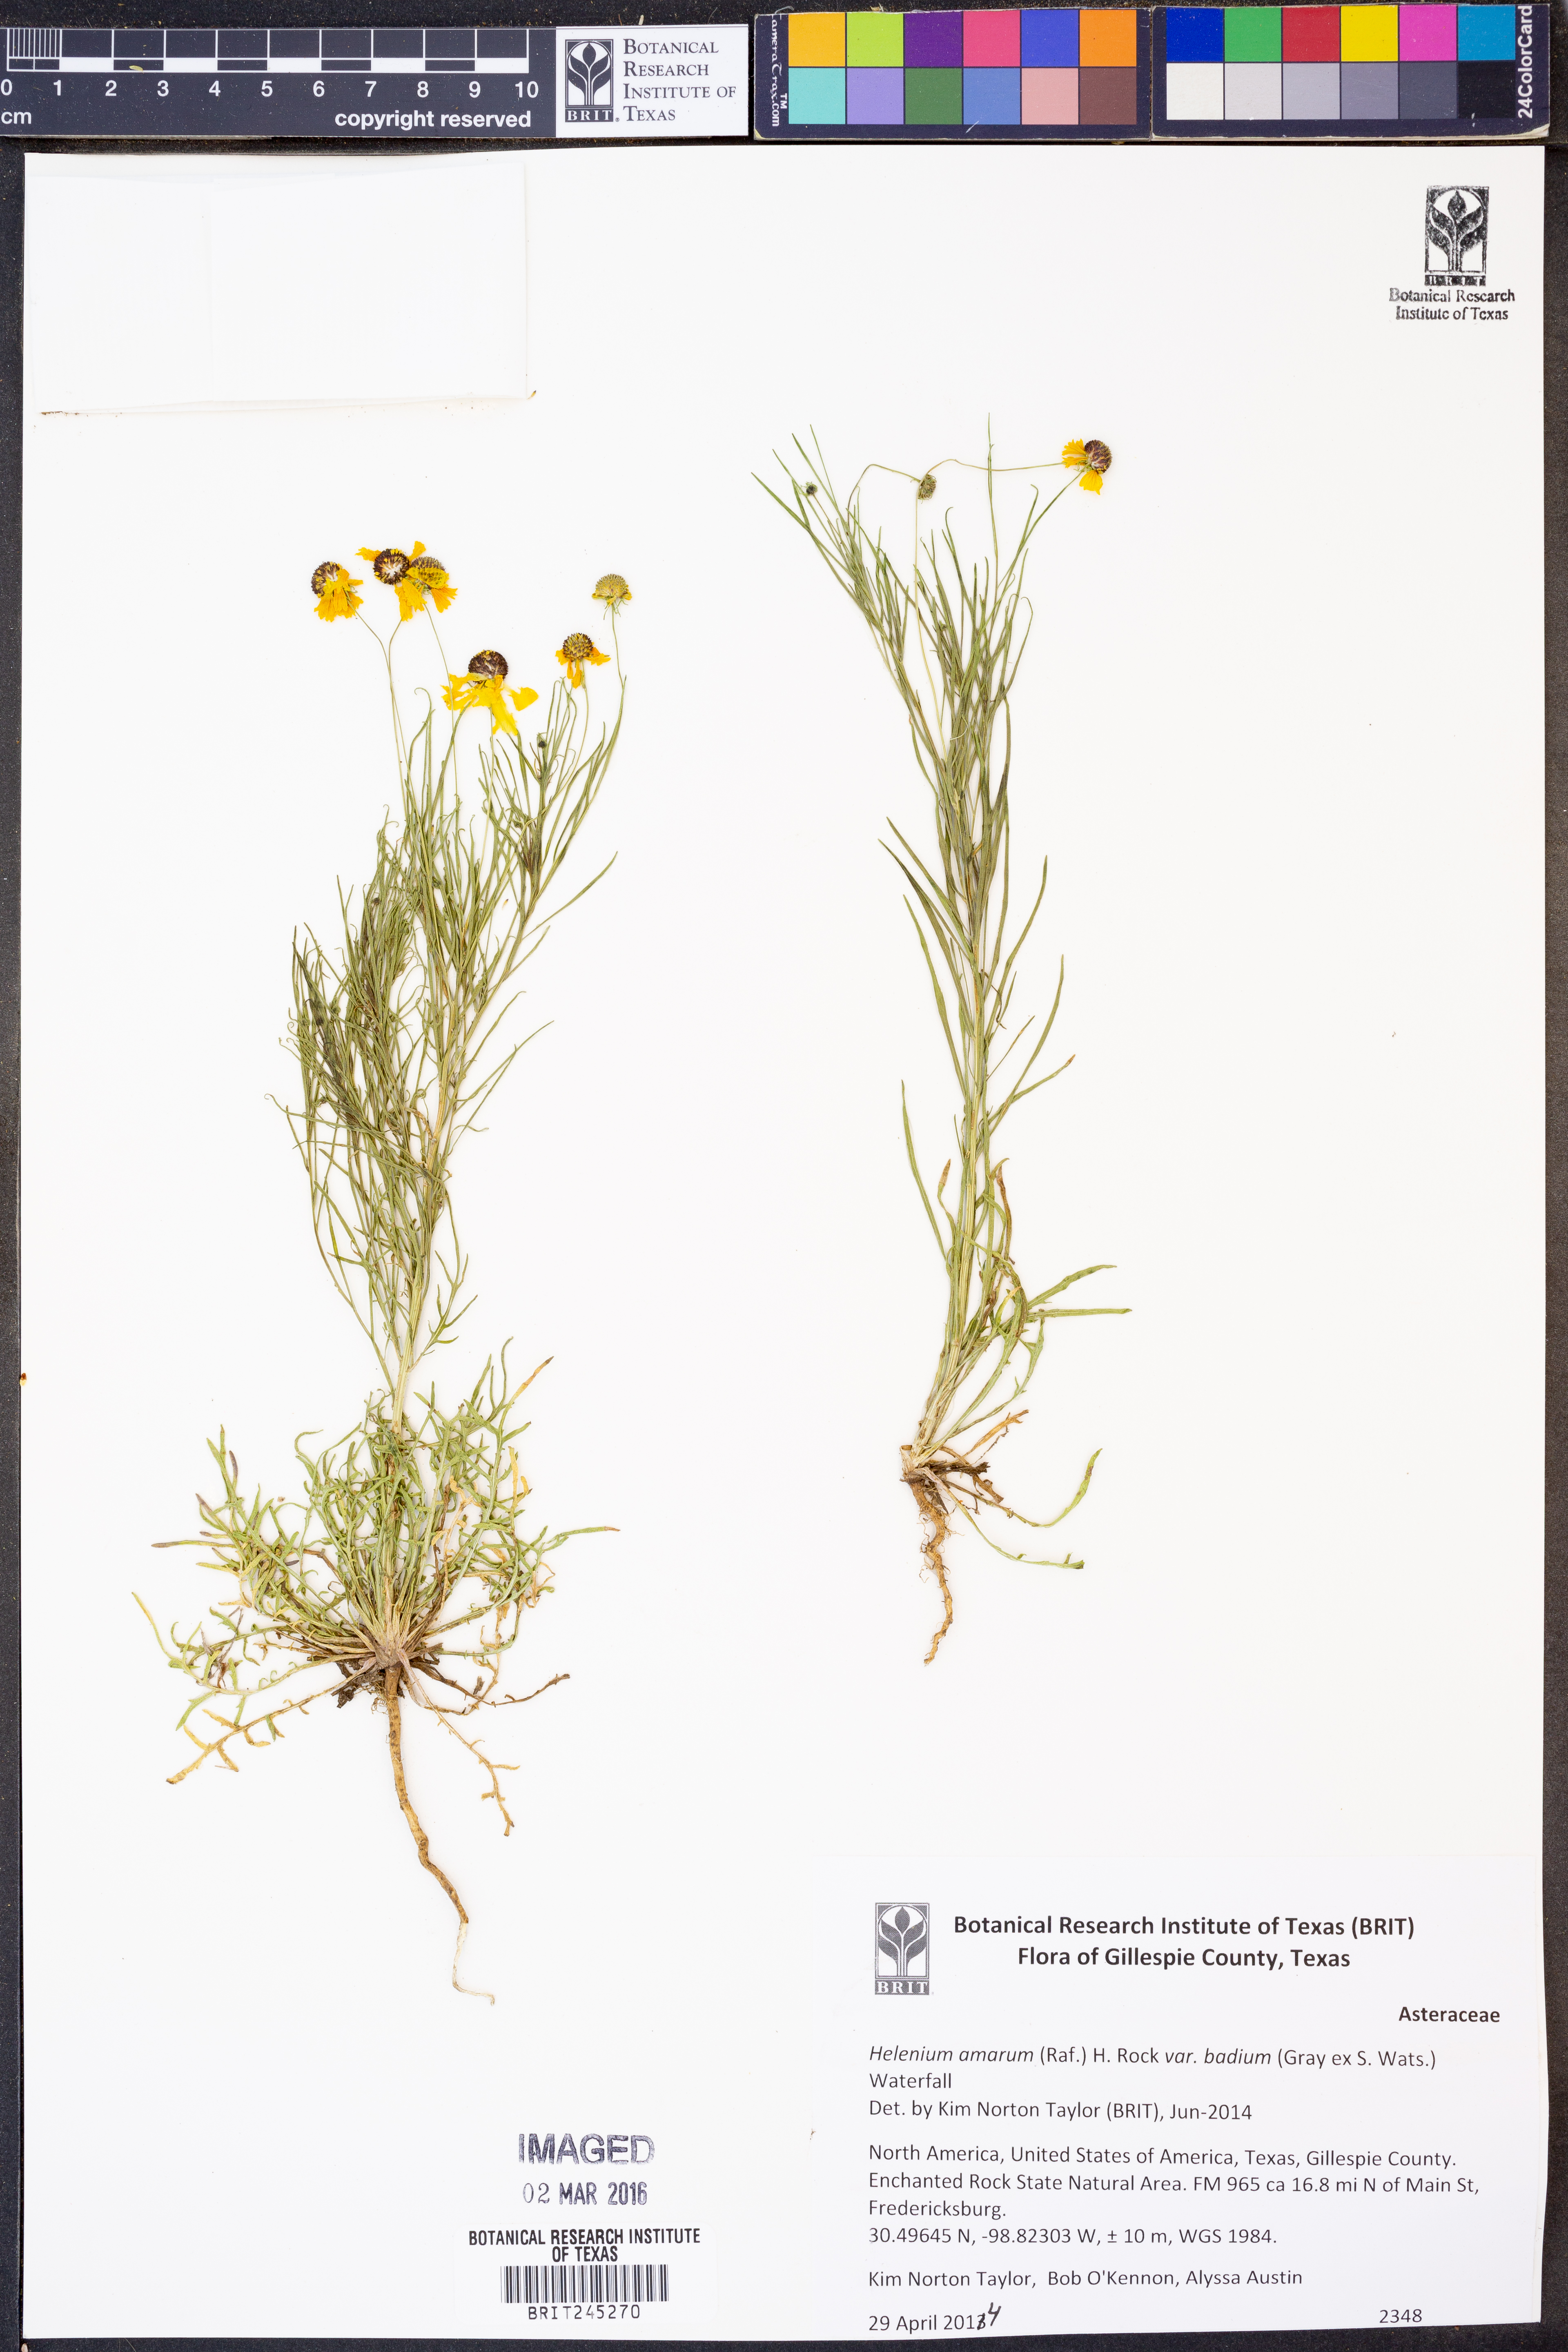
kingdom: Plantae
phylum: Tracheophyta
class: Magnoliopsida
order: Asterales
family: Asteraceae
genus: Helenium
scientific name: Helenium amarum
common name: Bitter sneezeweed
